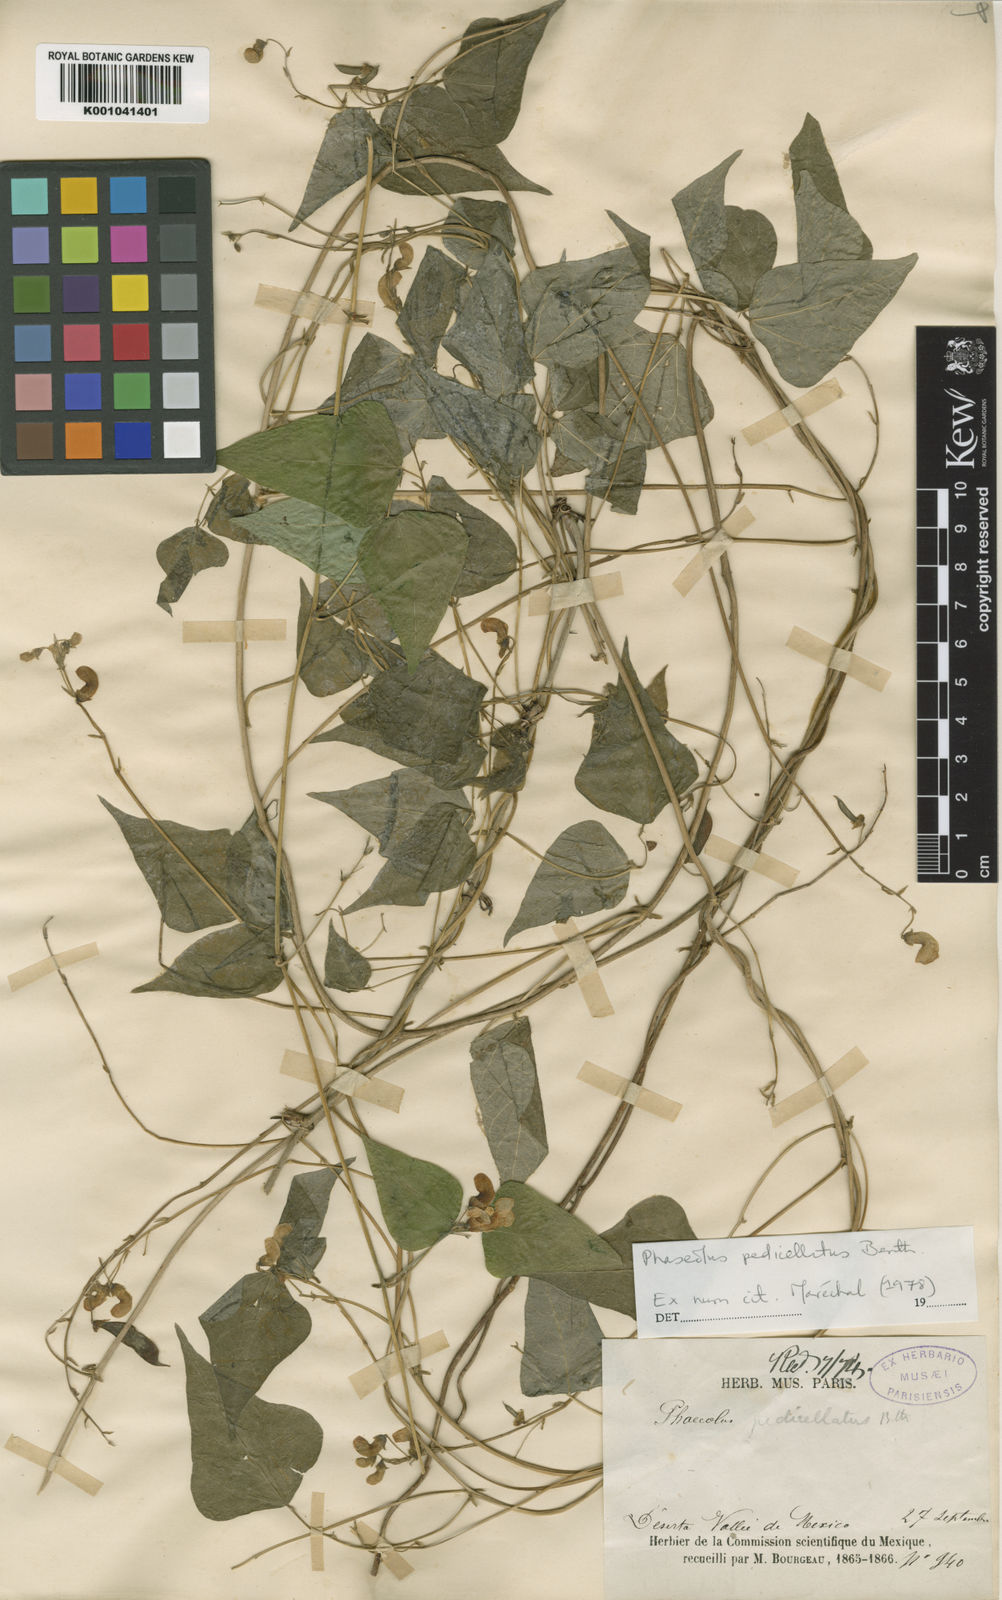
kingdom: Plantae
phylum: Tracheophyta
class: Magnoliopsida
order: Fabales
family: Fabaceae
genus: Phaseolus
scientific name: Phaseolus pedicellatus
